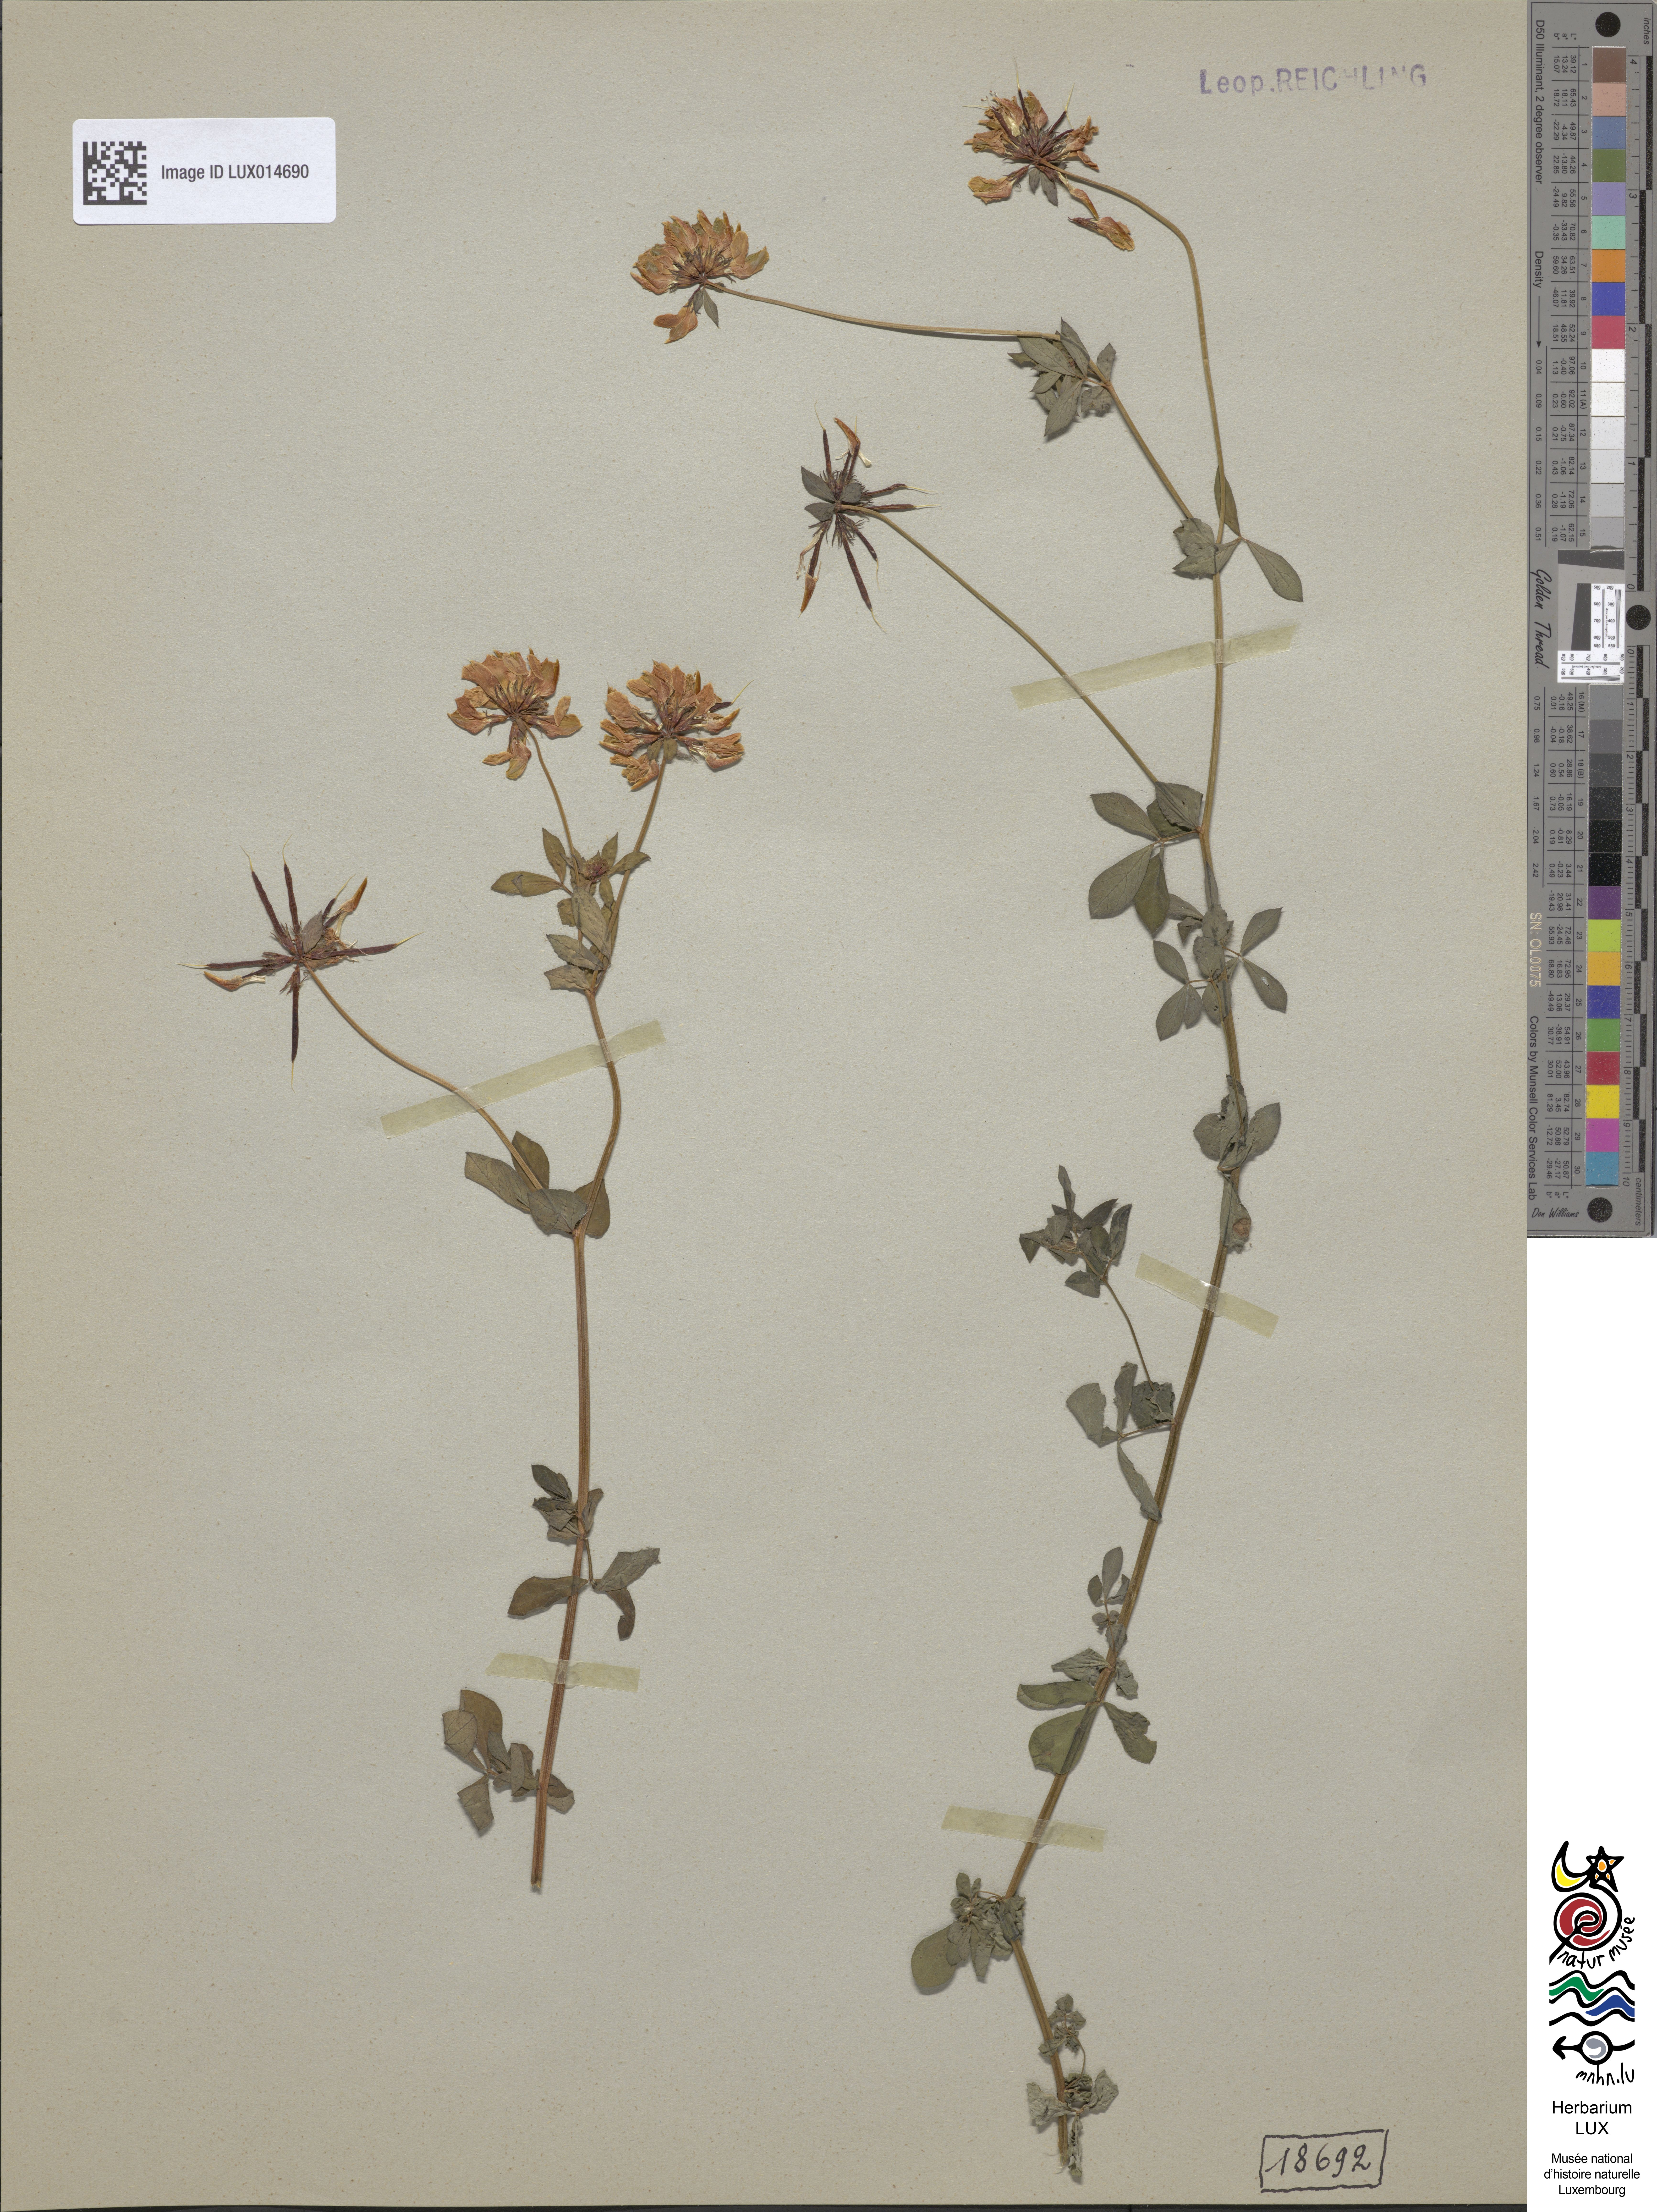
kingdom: Plantae
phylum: Tracheophyta
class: Magnoliopsida
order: Fabales
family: Fabaceae
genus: Lotus
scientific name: Lotus pedunculatus
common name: Greater birdsfoot-trefoil
